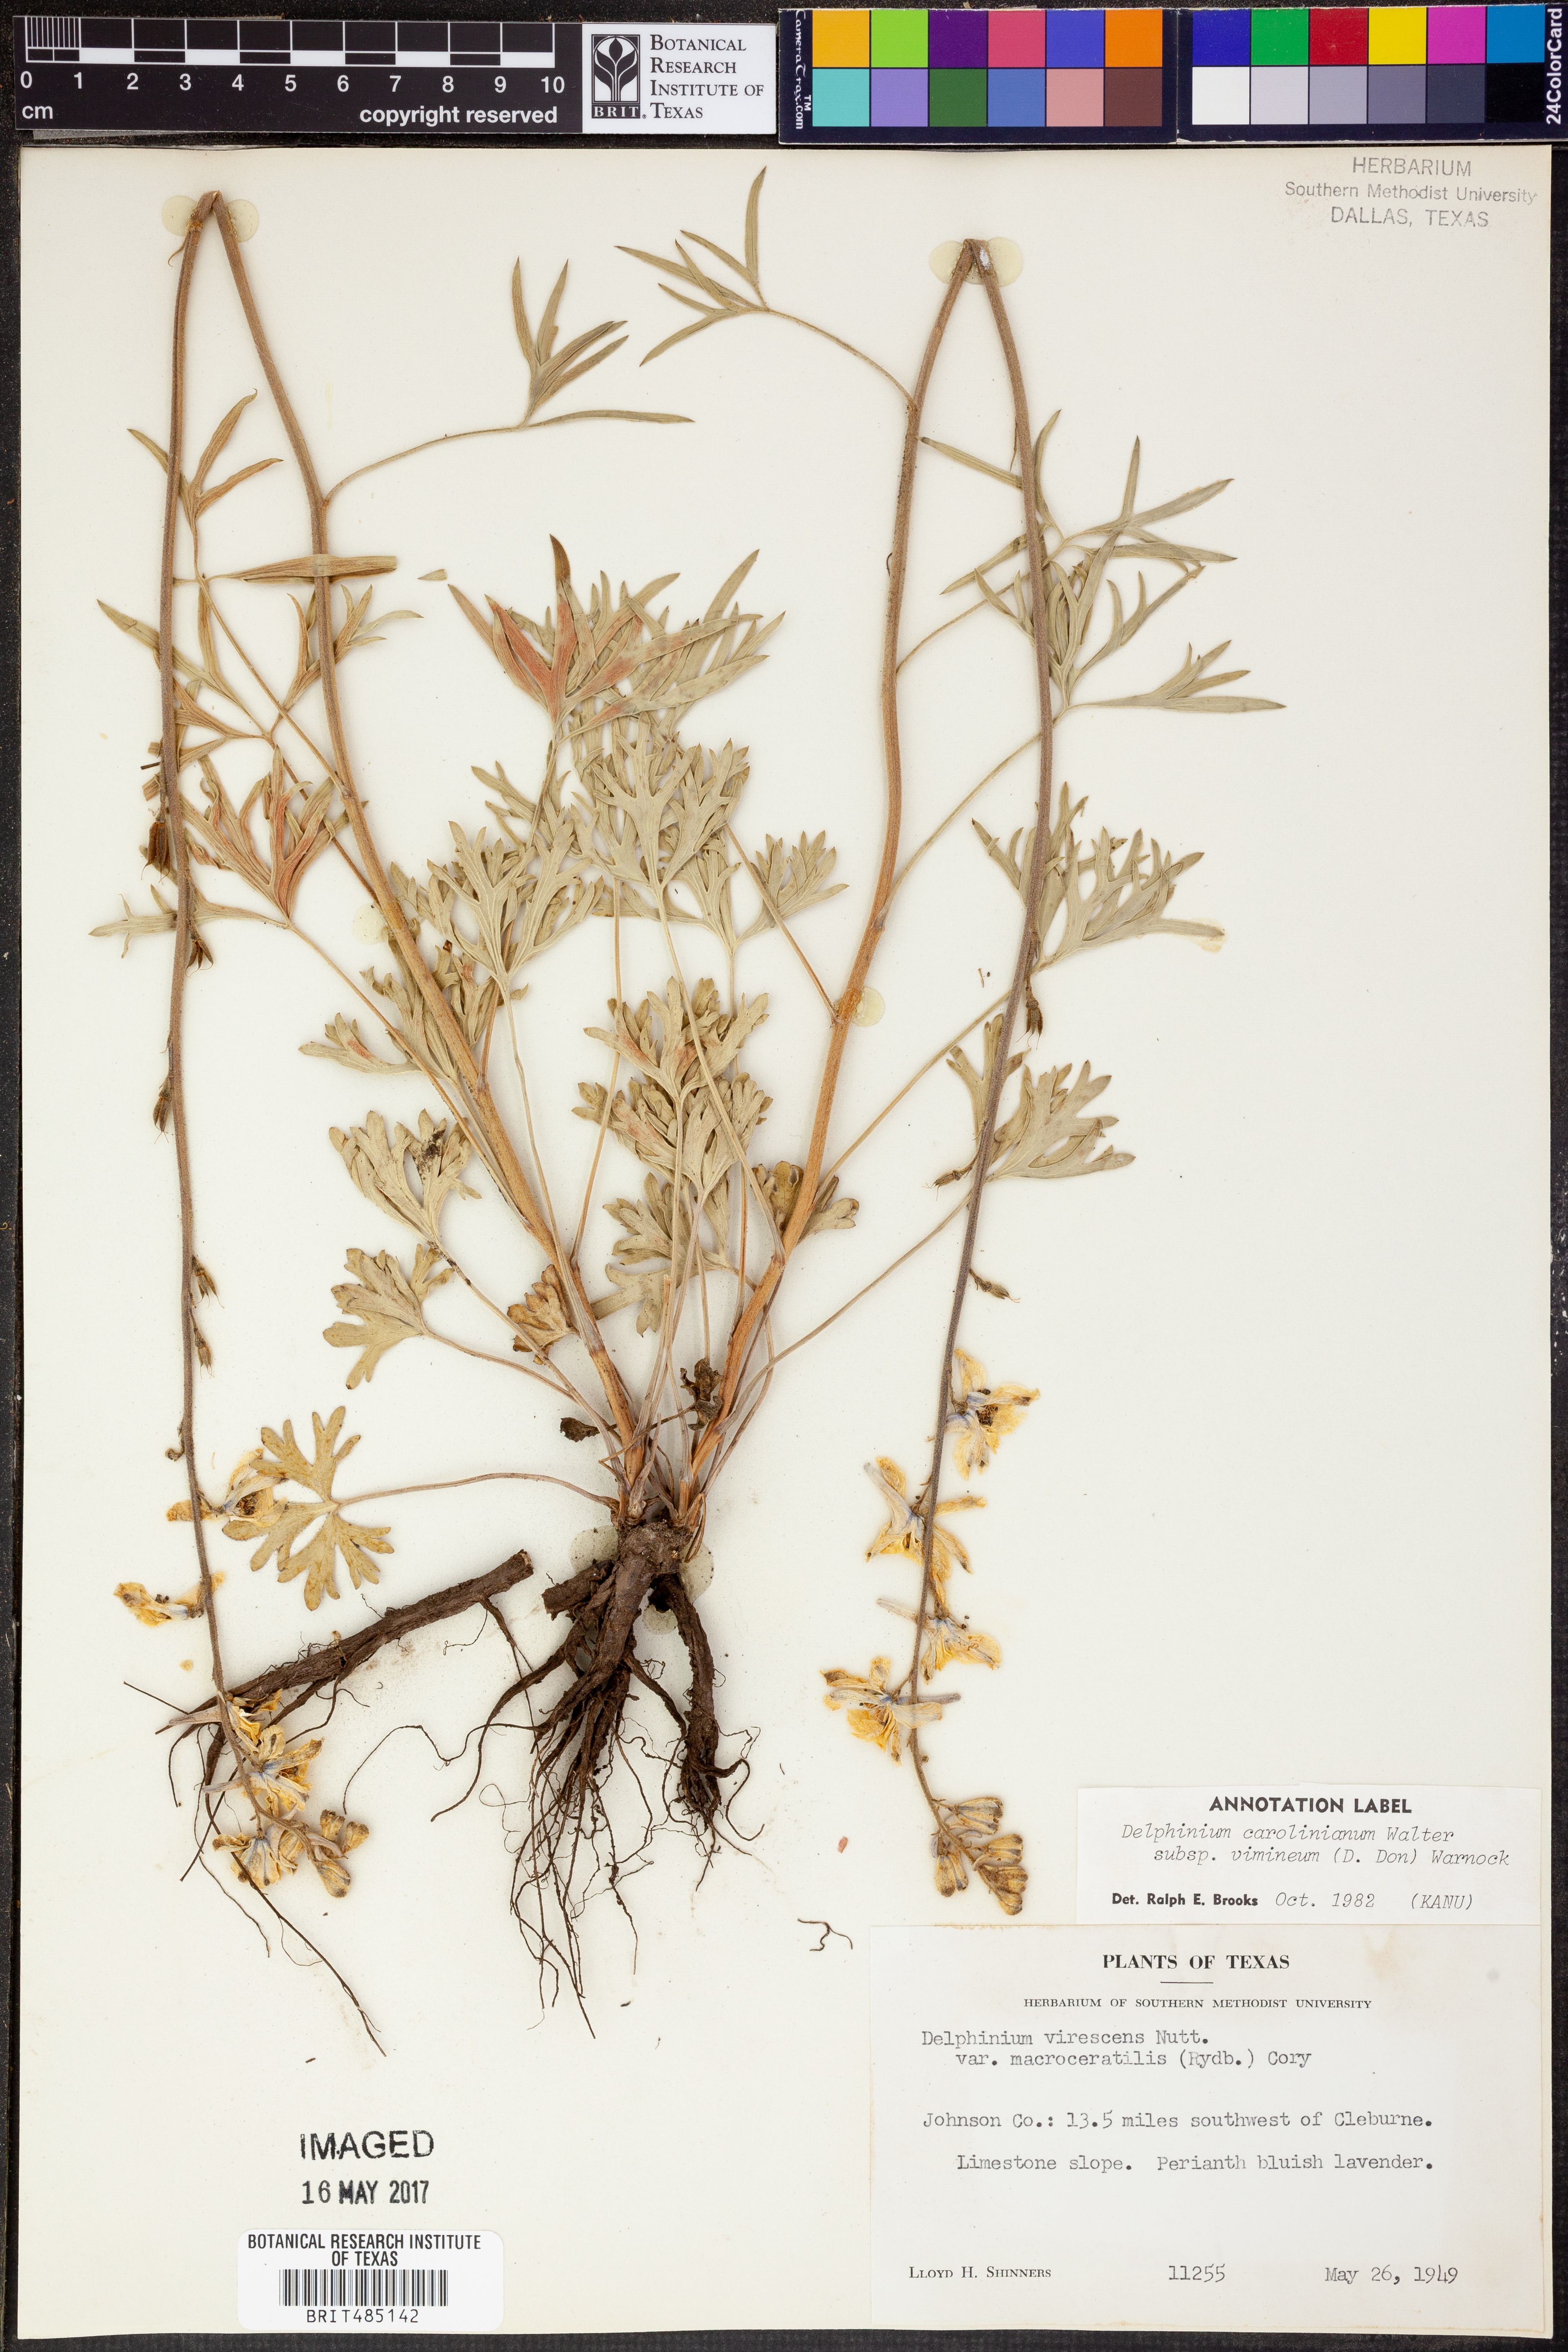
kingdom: Plantae
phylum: Tracheophyta
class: Magnoliopsida
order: Ranunculales
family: Ranunculaceae
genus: Delphinium
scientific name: Delphinium carolinianum
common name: Carolina larkspur
